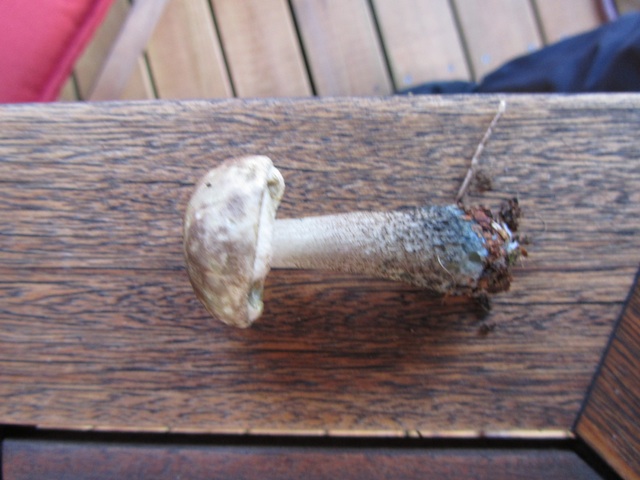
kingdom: Fungi
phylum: Basidiomycota
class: Agaricomycetes
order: Boletales
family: Boletaceae
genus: Leccinum
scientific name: Leccinum variicolor
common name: flammet skælrørhat
